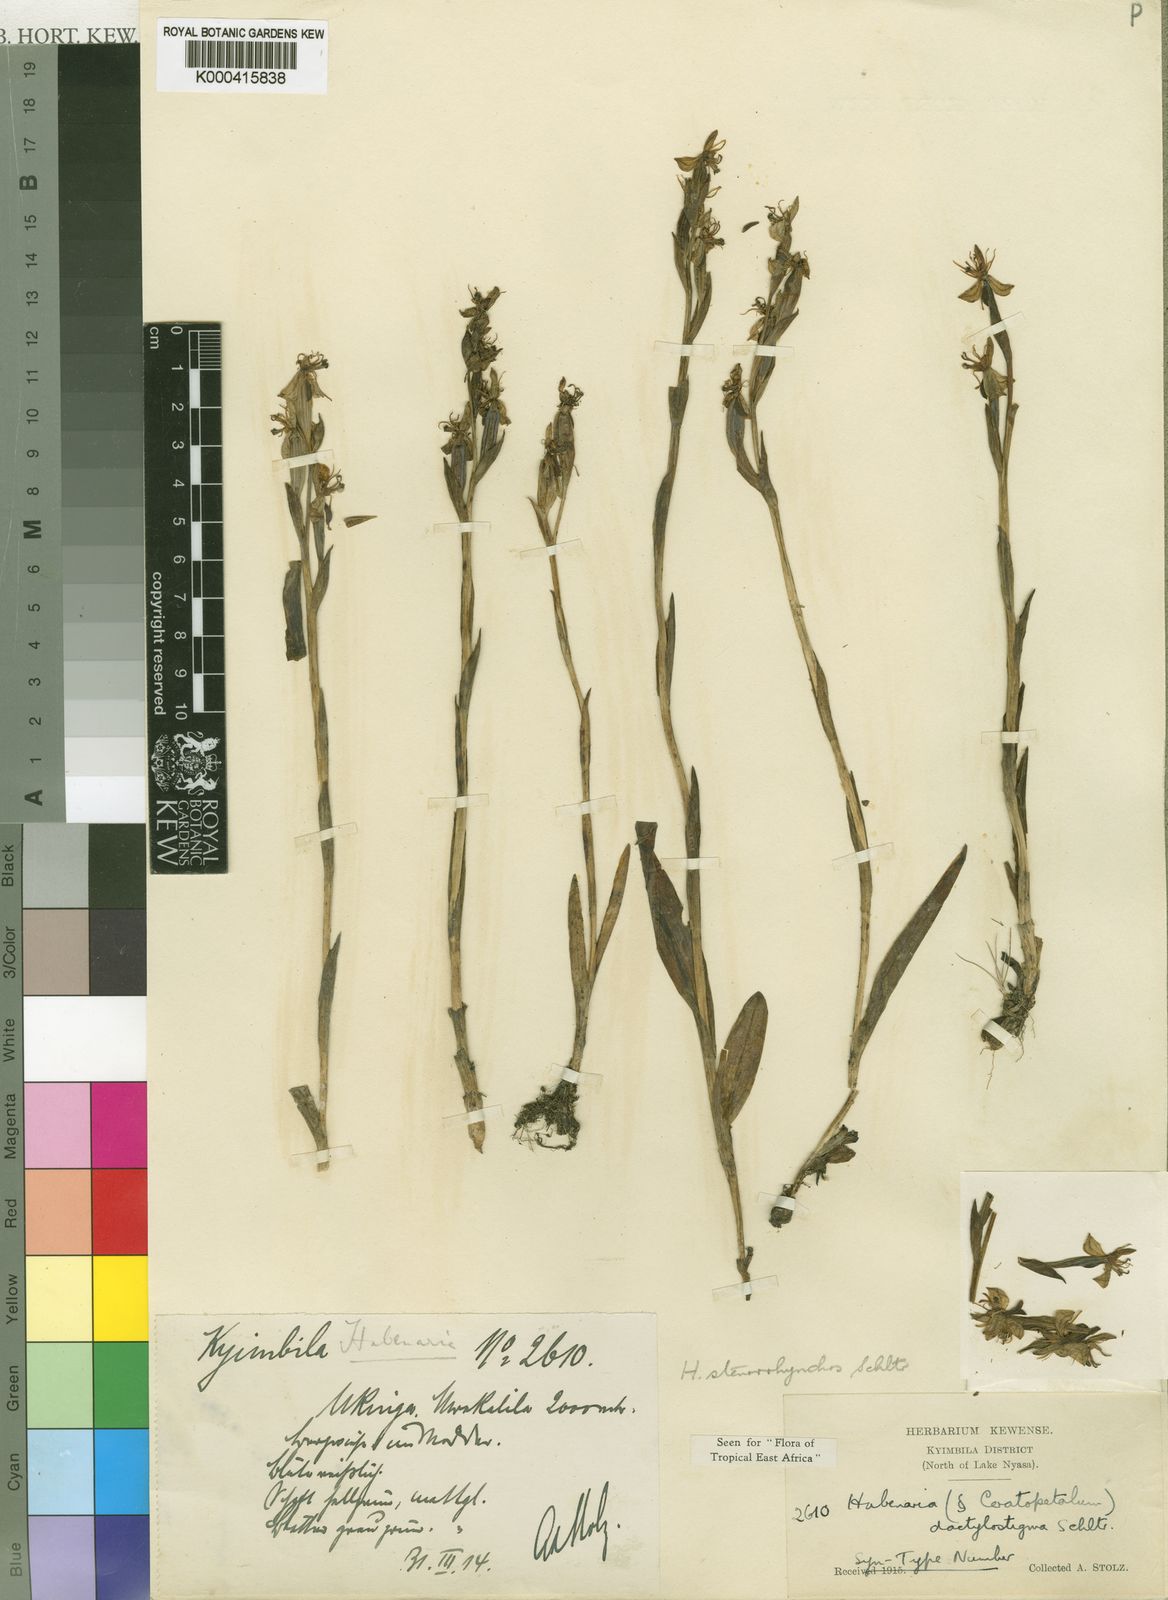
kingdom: Plantae
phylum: Tracheophyta
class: Liliopsida
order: Asparagales
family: Orchidaceae
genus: Habenaria
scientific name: Habenaria stenorhynchos
